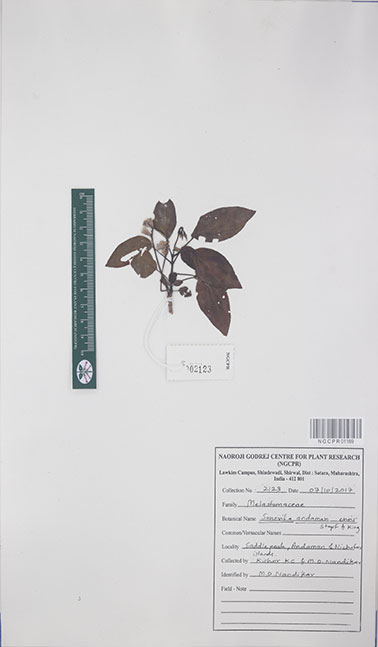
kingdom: Plantae
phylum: Tracheophyta
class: Magnoliopsida
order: Myrtales
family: Melastomataceae
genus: Sonerila
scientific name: Sonerila andamanensis
